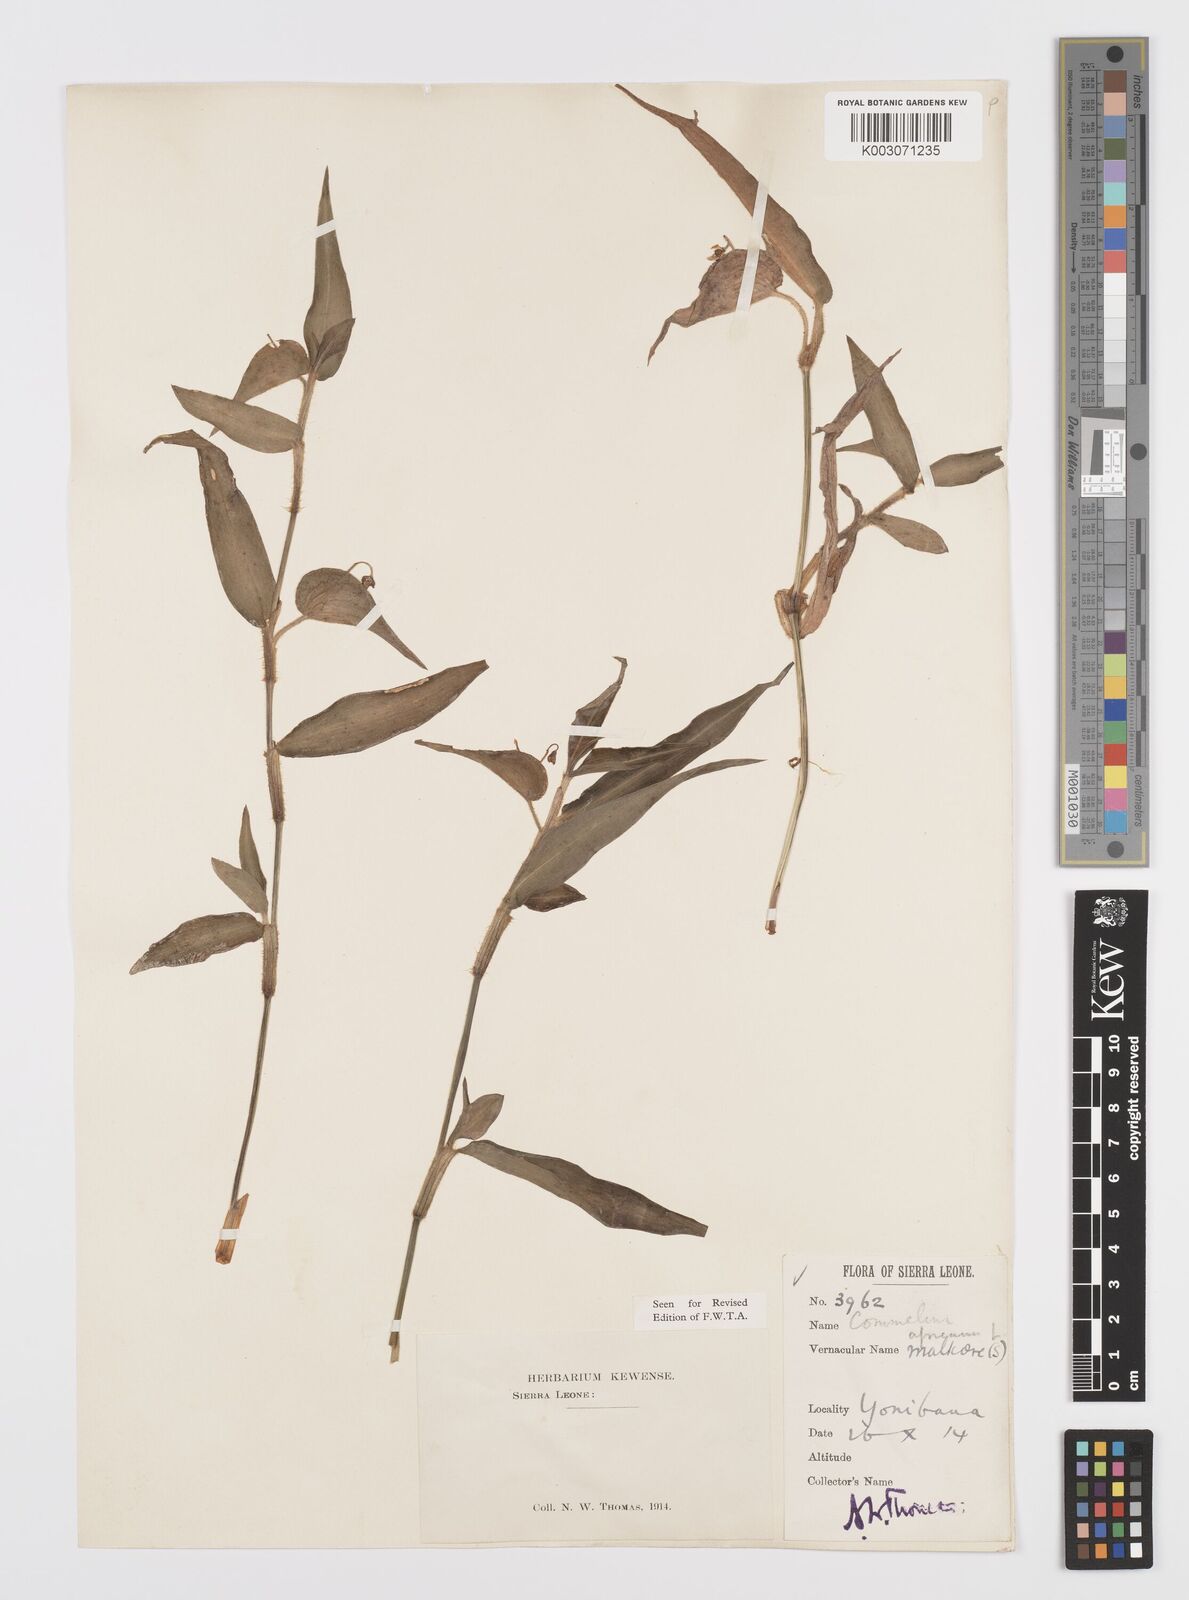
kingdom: Plantae
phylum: Tracheophyta
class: Liliopsida
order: Commelinales
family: Commelinaceae
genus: Commelina
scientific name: Commelina acutispatha
